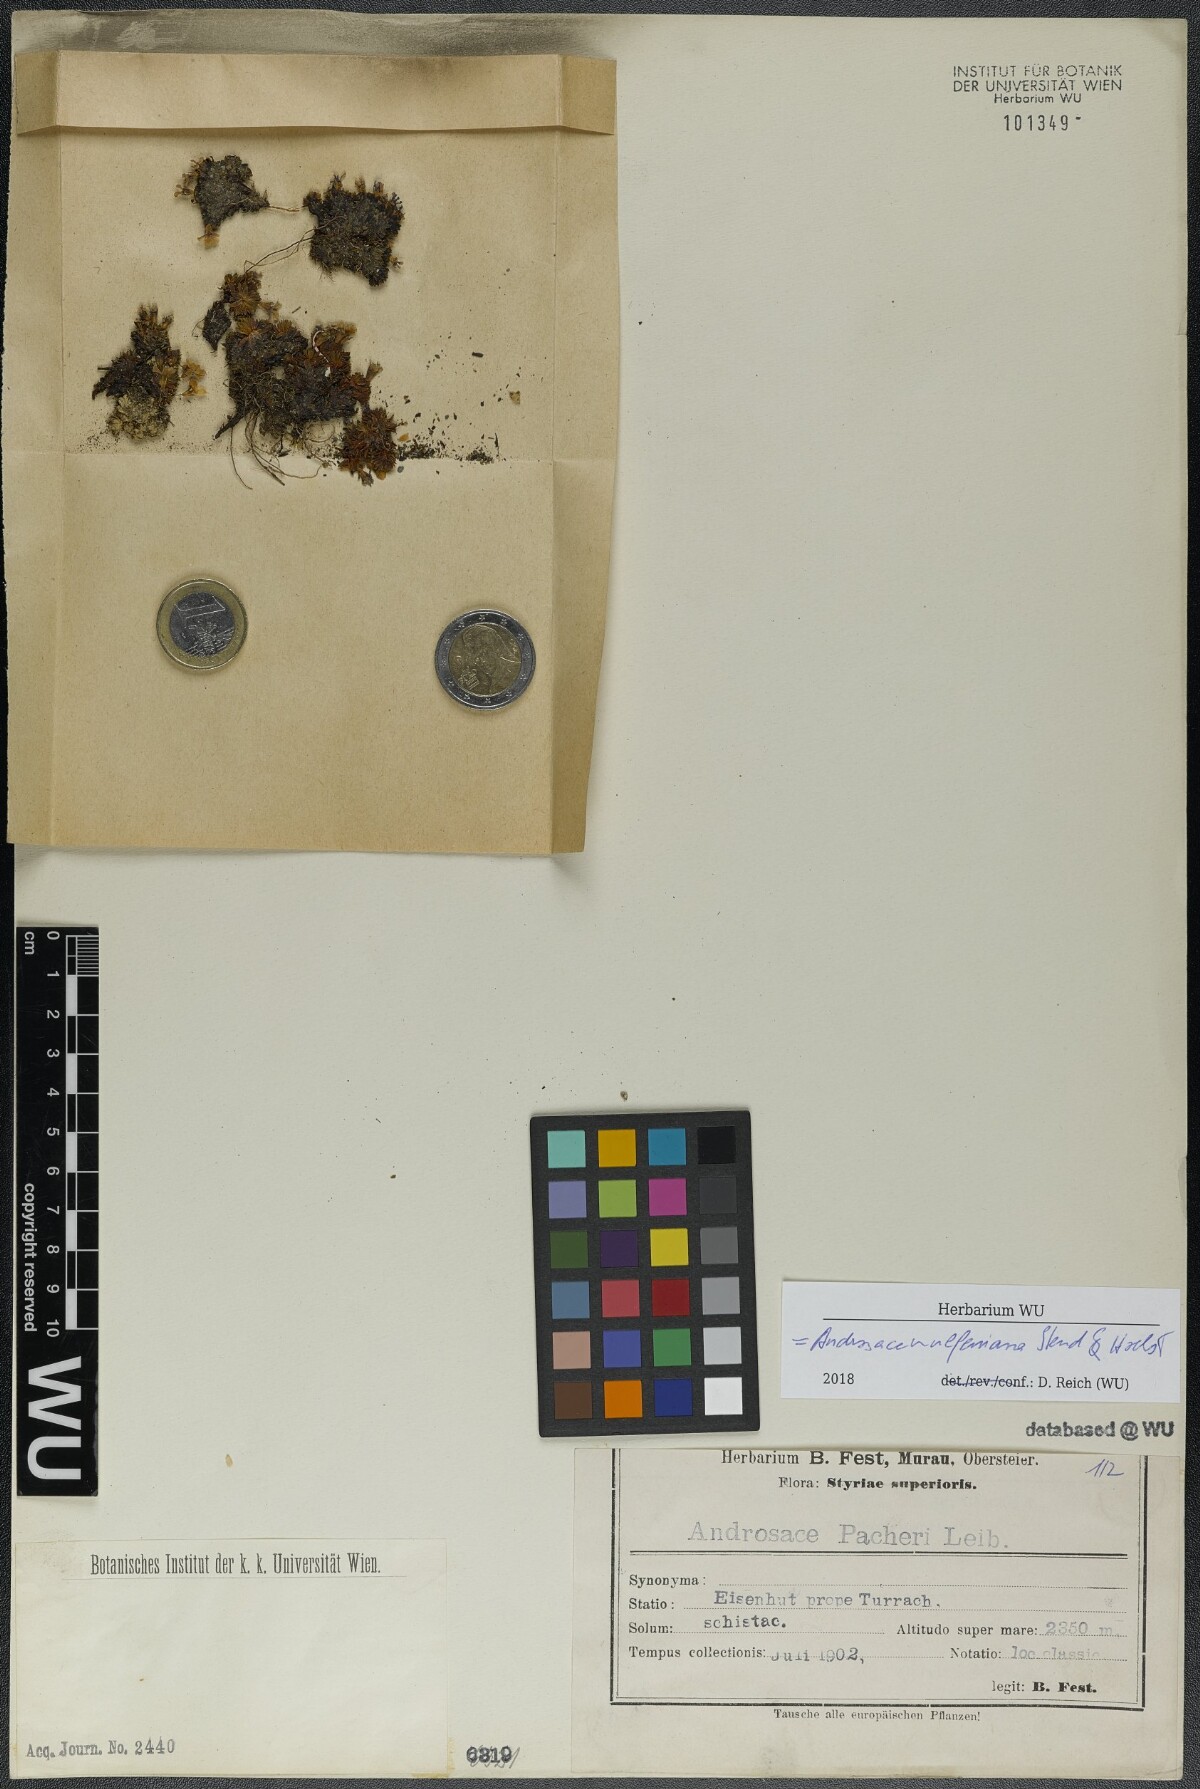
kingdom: Plantae
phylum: Tracheophyta
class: Magnoliopsida
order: Ericales
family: Primulaceae
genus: Androsace
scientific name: Androsace wulfeniana
